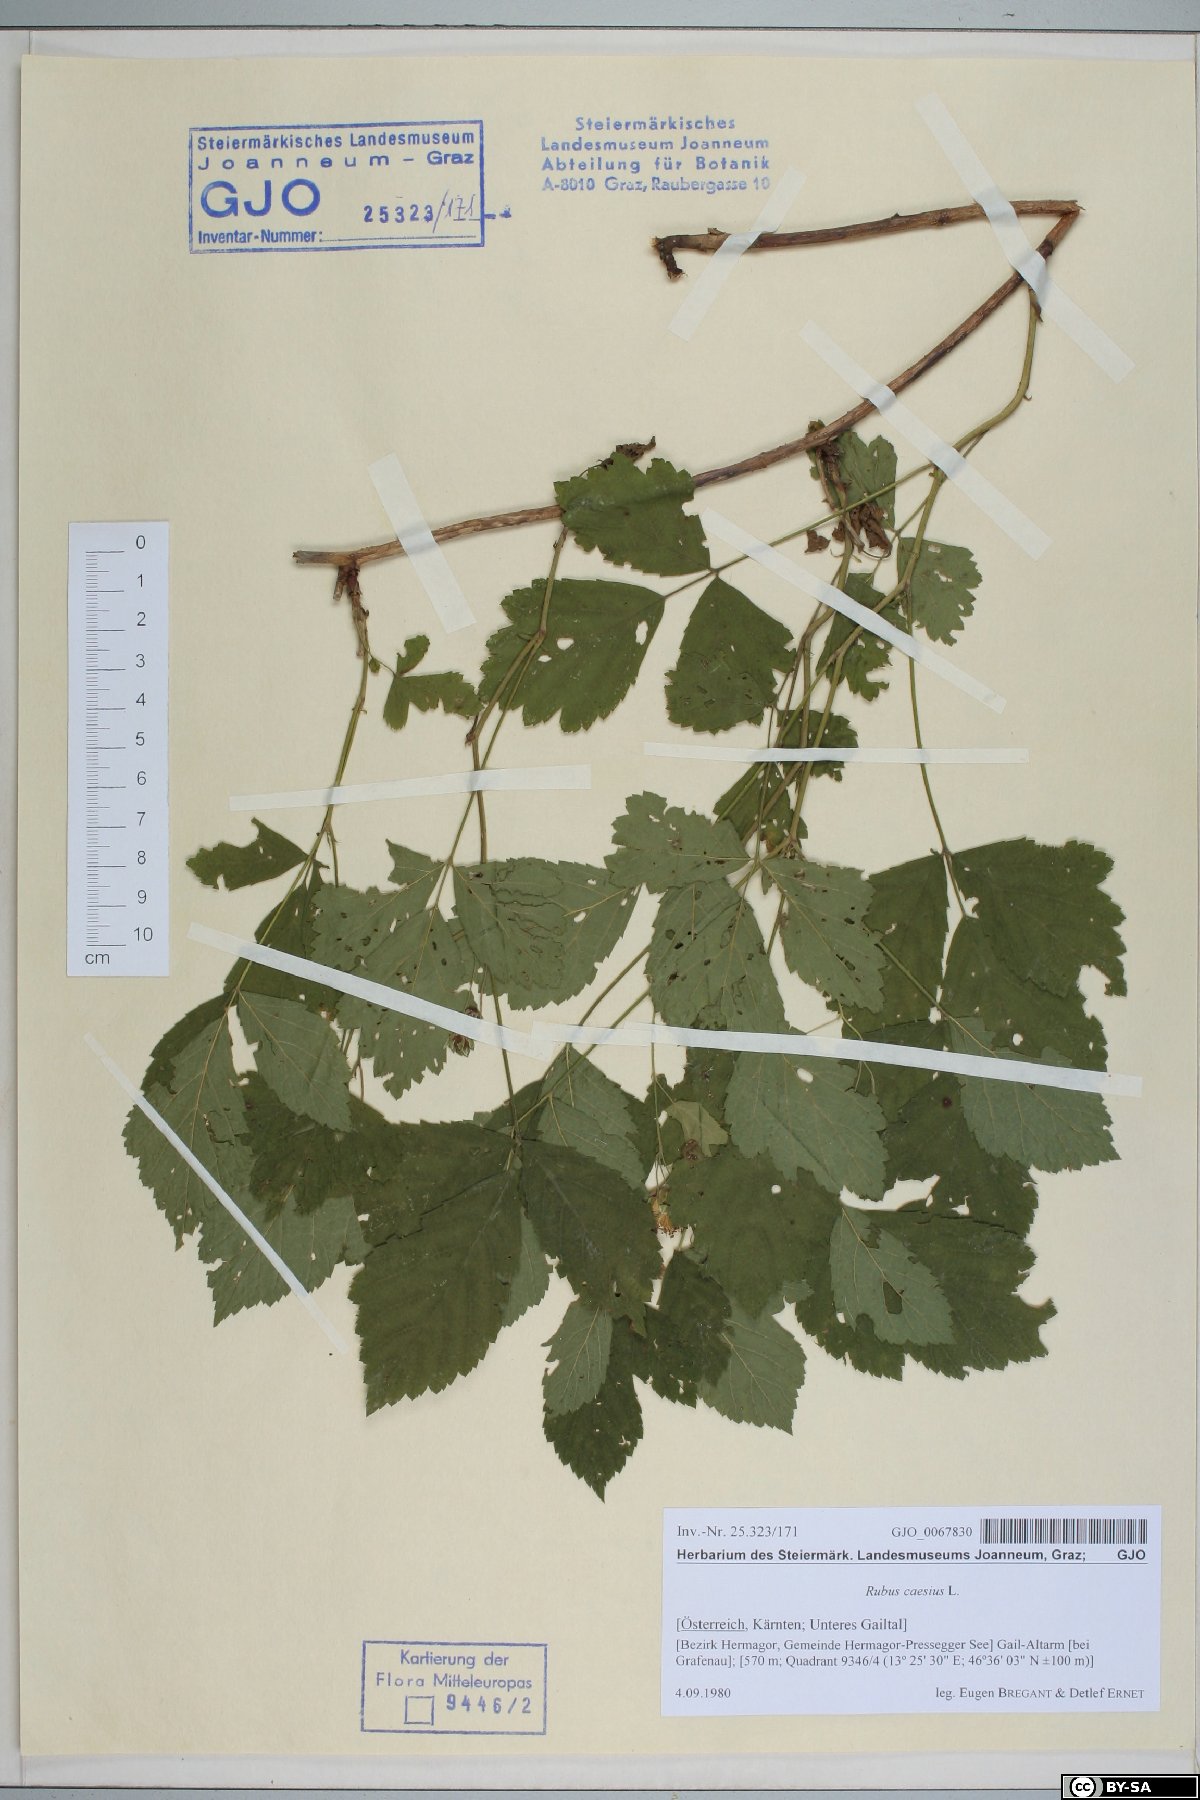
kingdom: Plantae
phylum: Tracheophyta
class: Magnoliopsida
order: Rosales
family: Rosaceae
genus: Rubus
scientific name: Rubus caesius
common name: Dewberry
